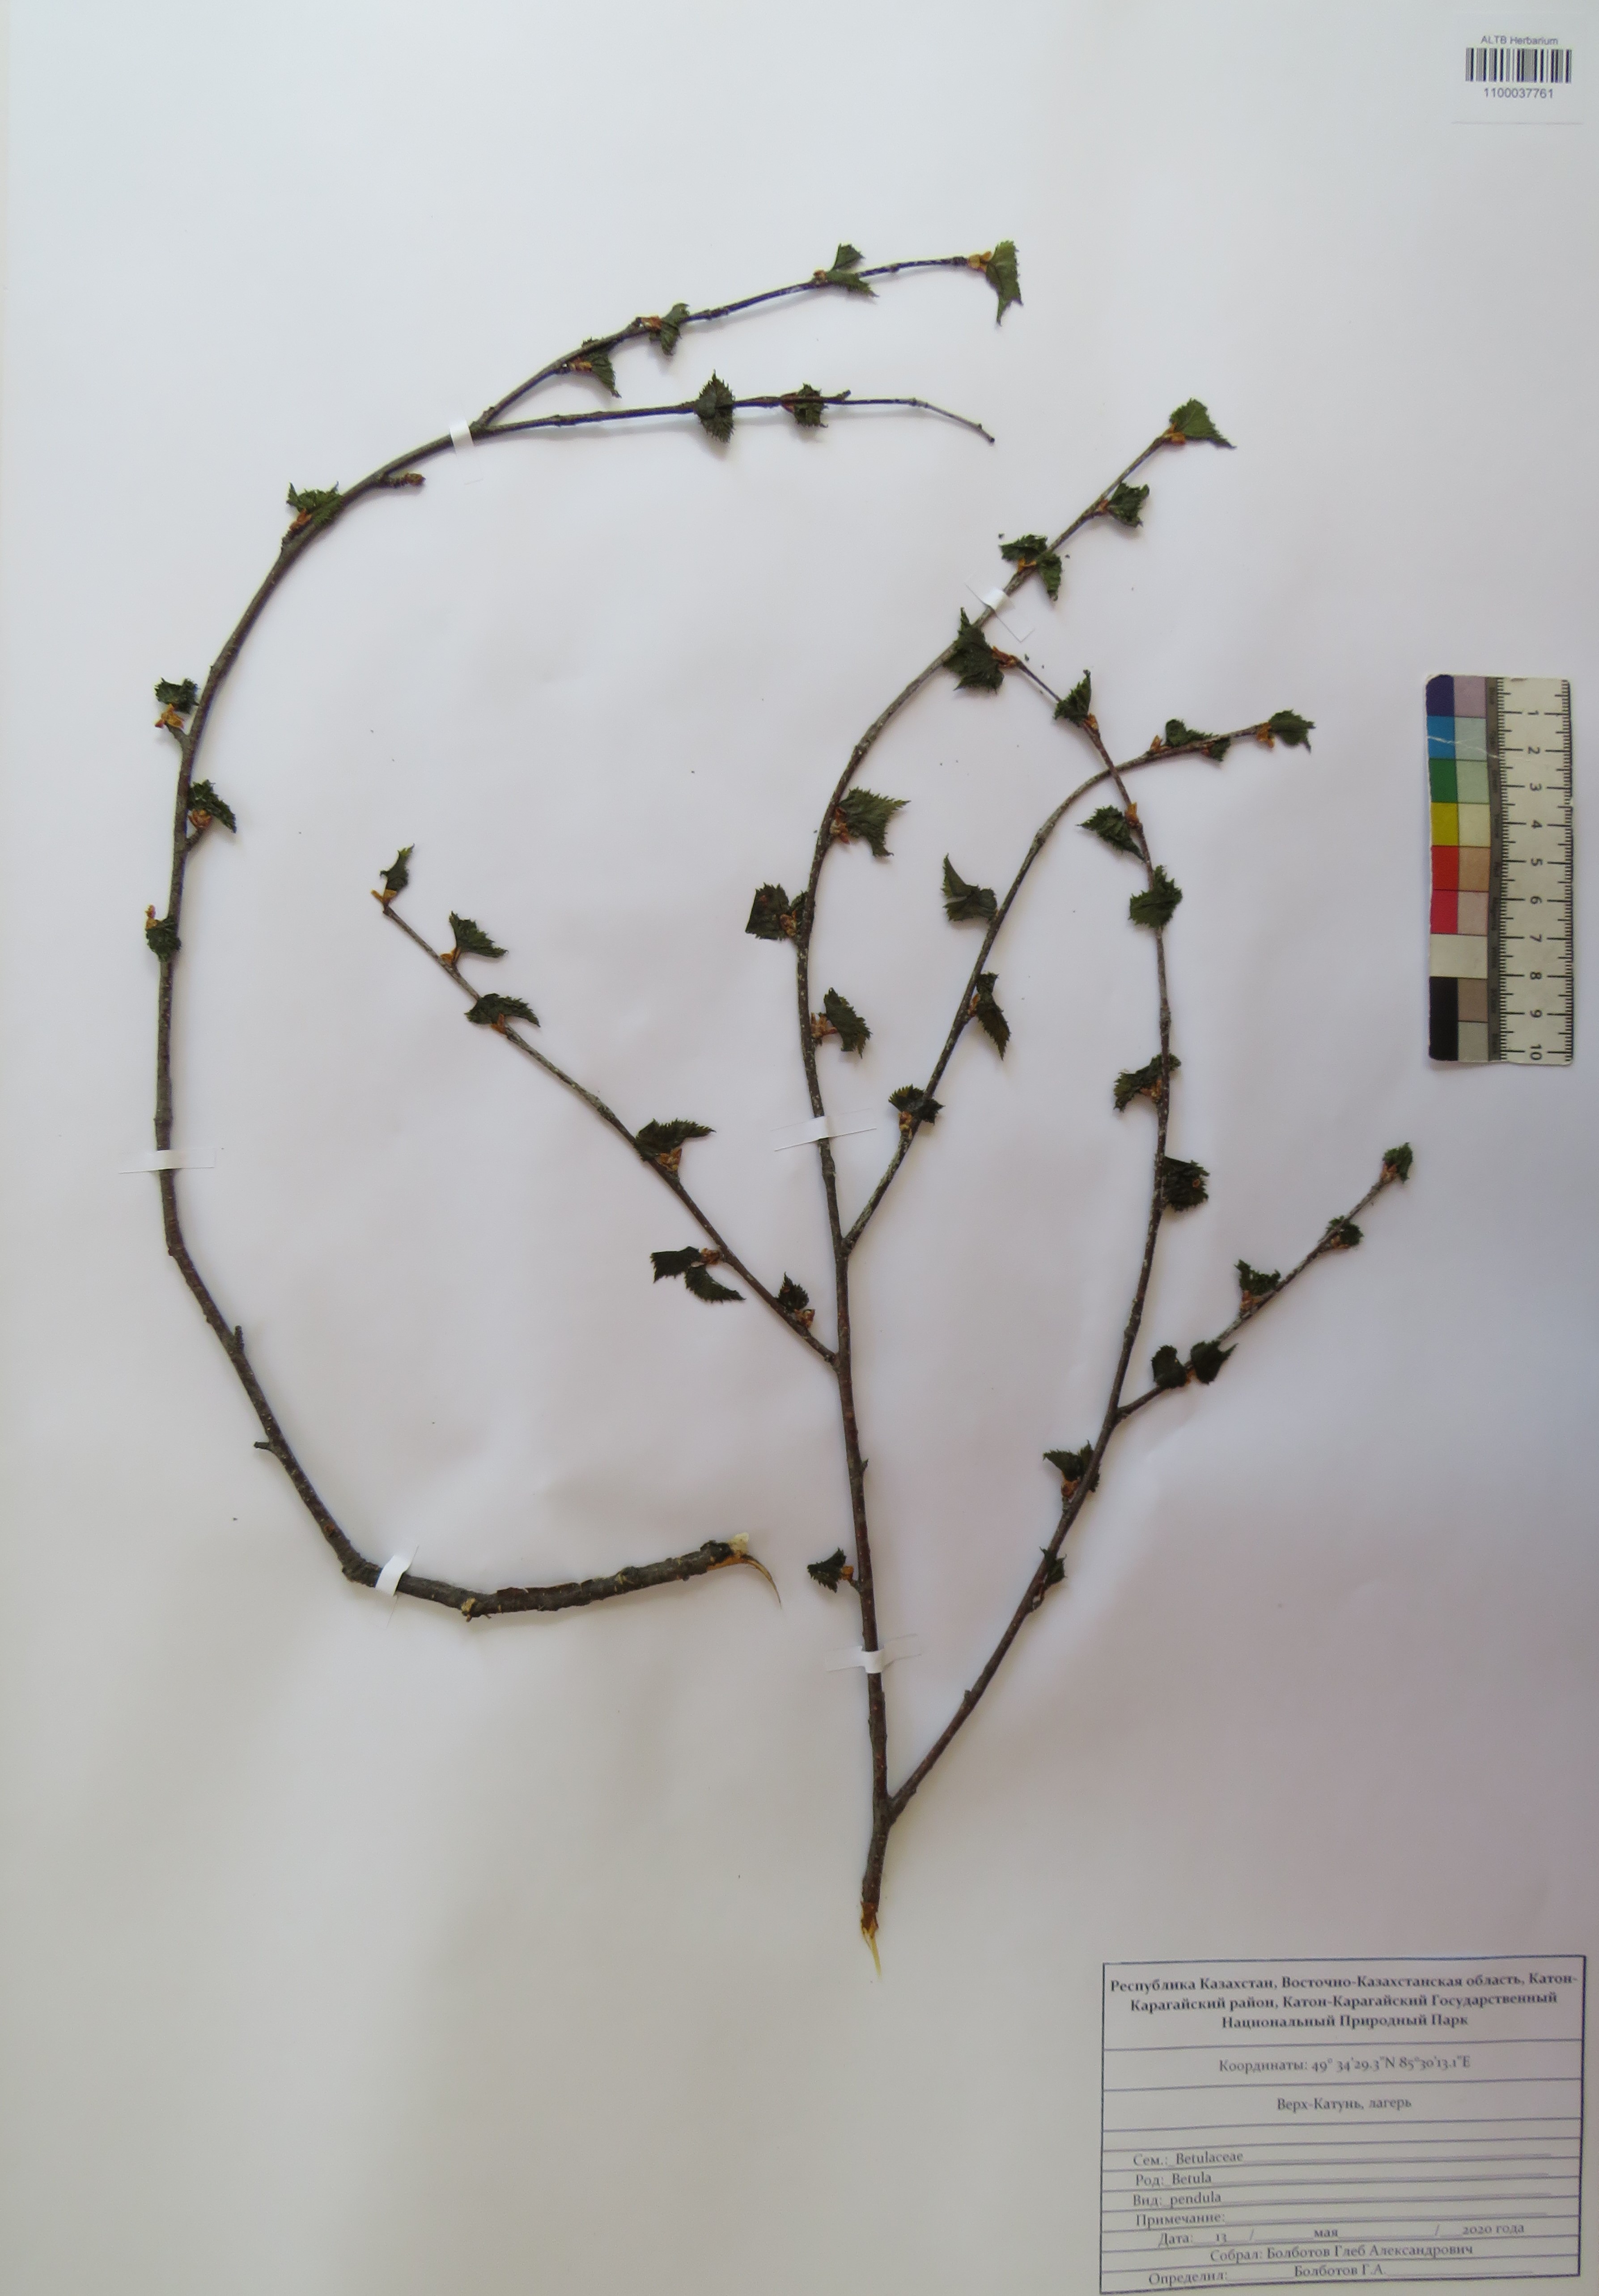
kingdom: Plantae
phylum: Tracheophyta
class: Magnoliopsida
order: Fagales
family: Betulaceae
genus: Betula
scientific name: Betula pendula
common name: Silver birch
